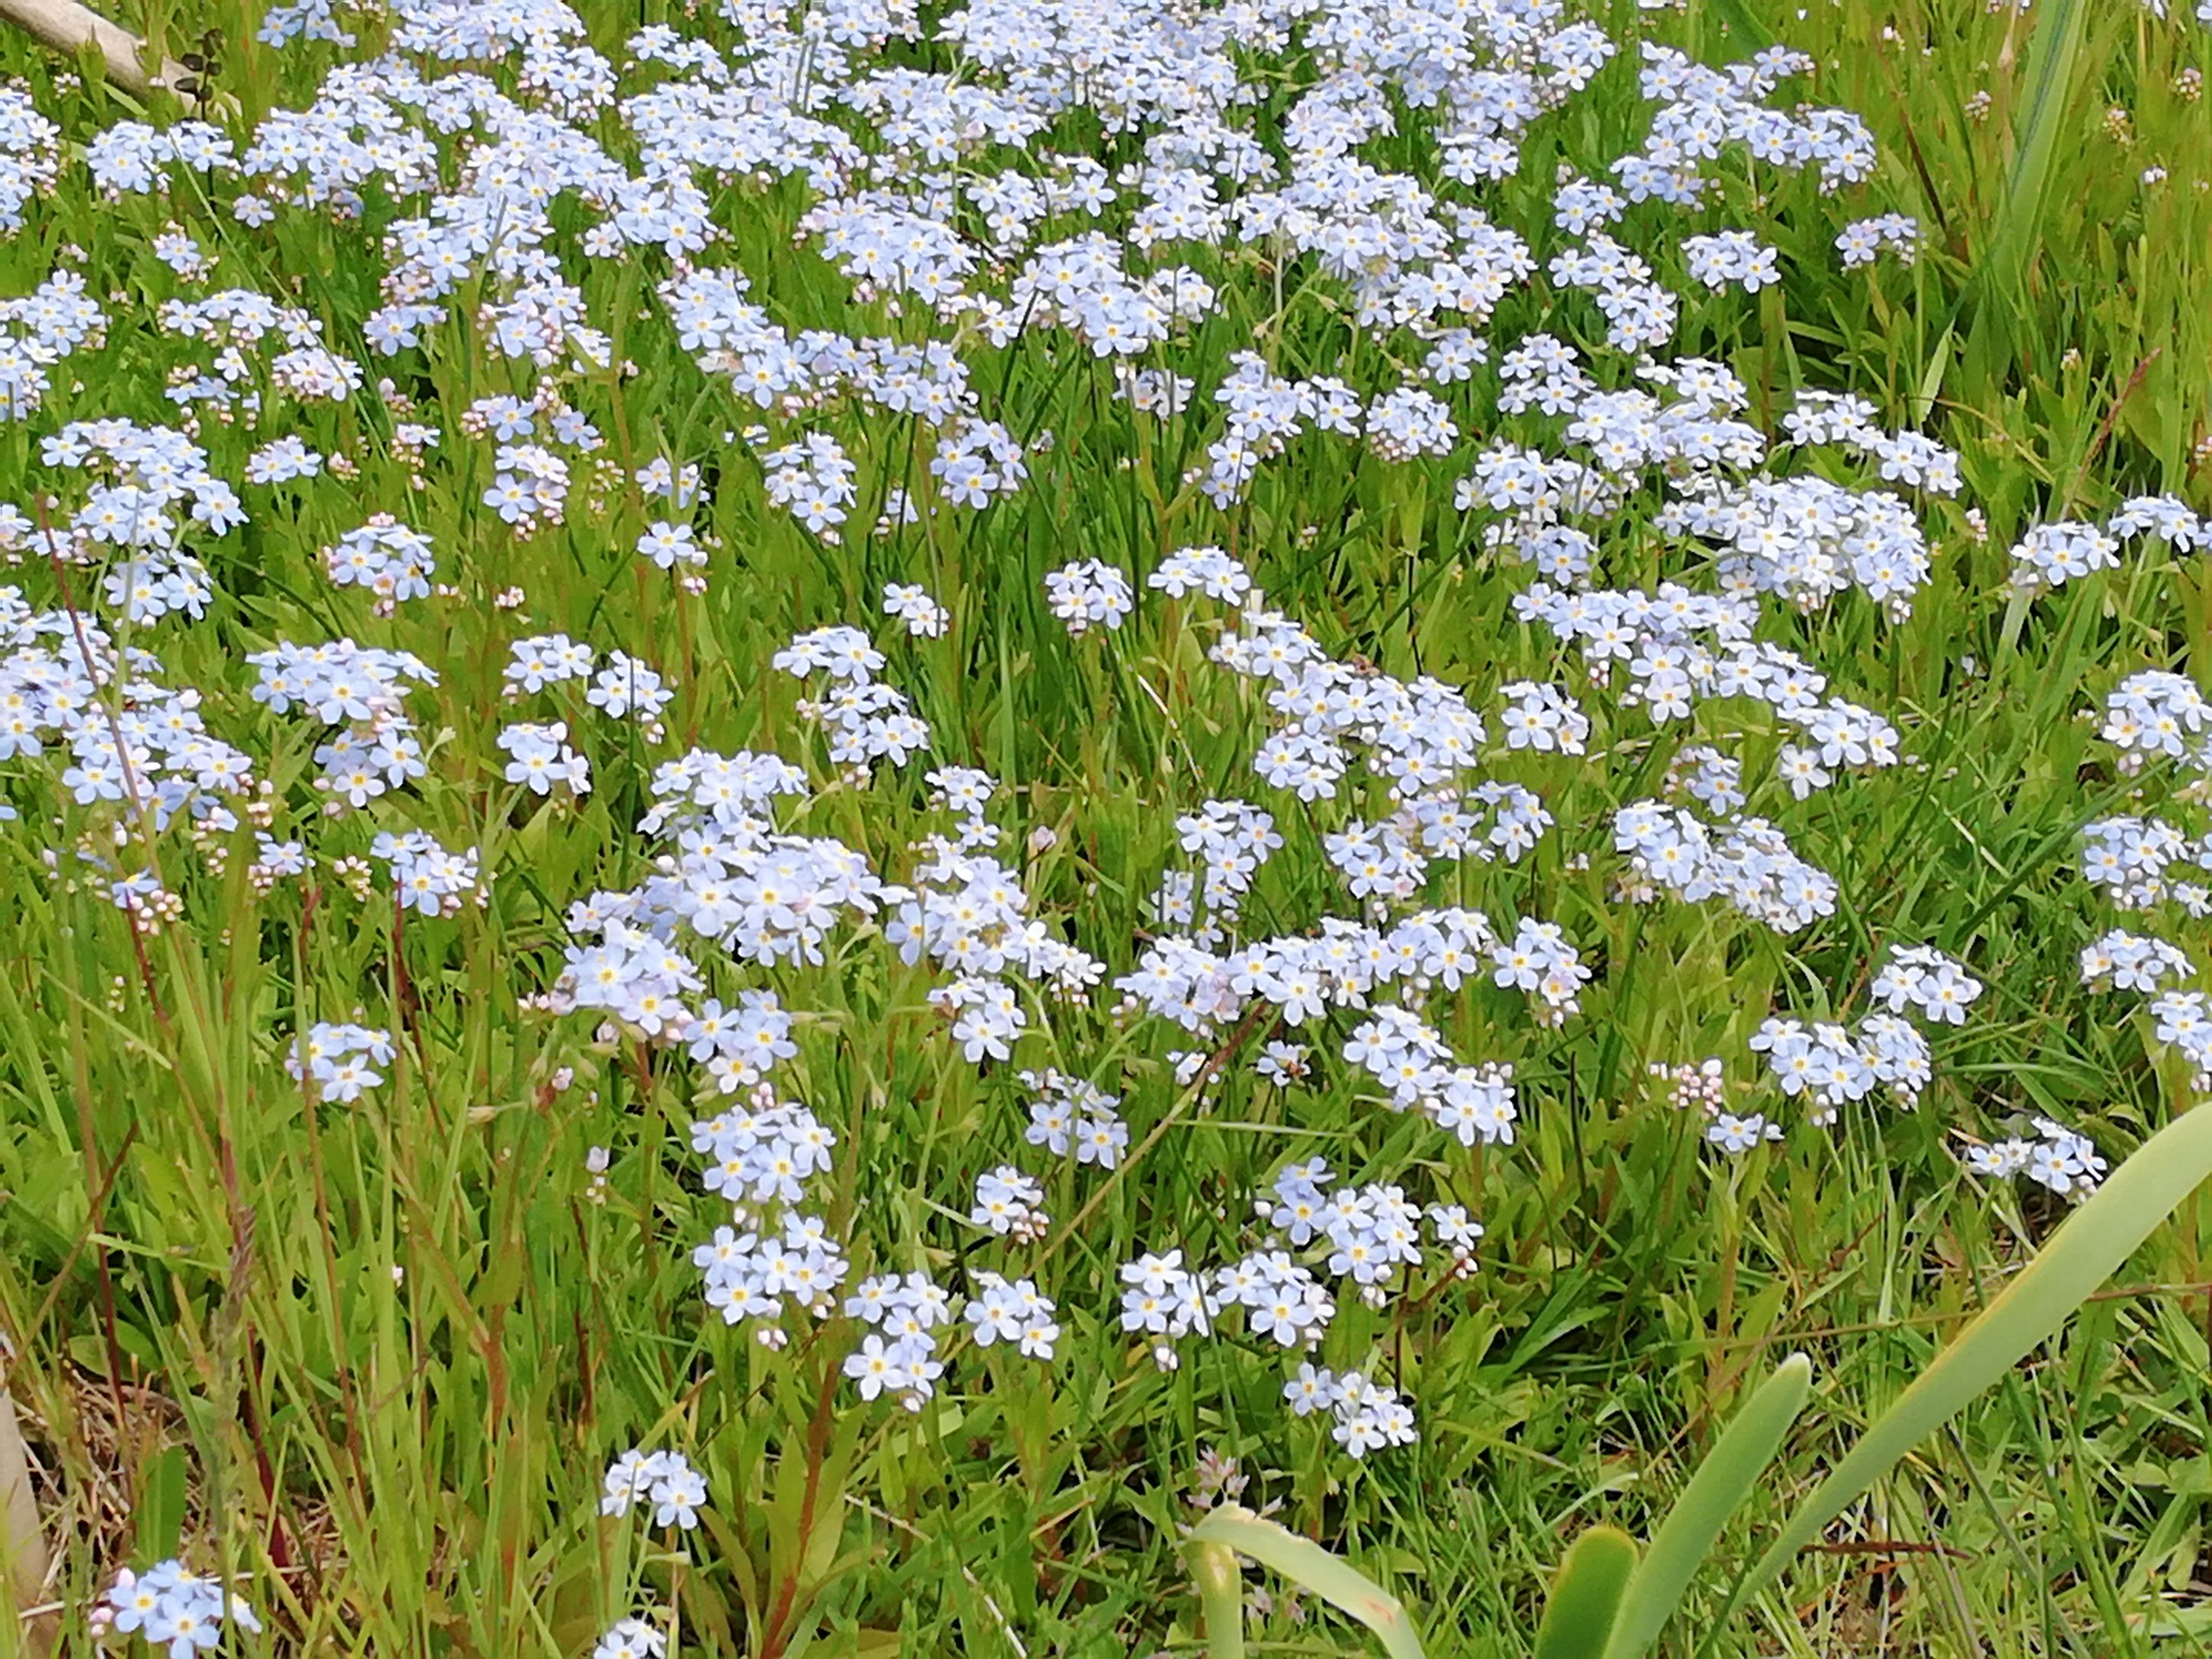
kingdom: Plantae
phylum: Tracheophyta
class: Magnoliopsida
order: Boraginales
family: Boraginaceae
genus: Myosotis
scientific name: Myosotis scorpioides
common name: Eng-forglemmigej
